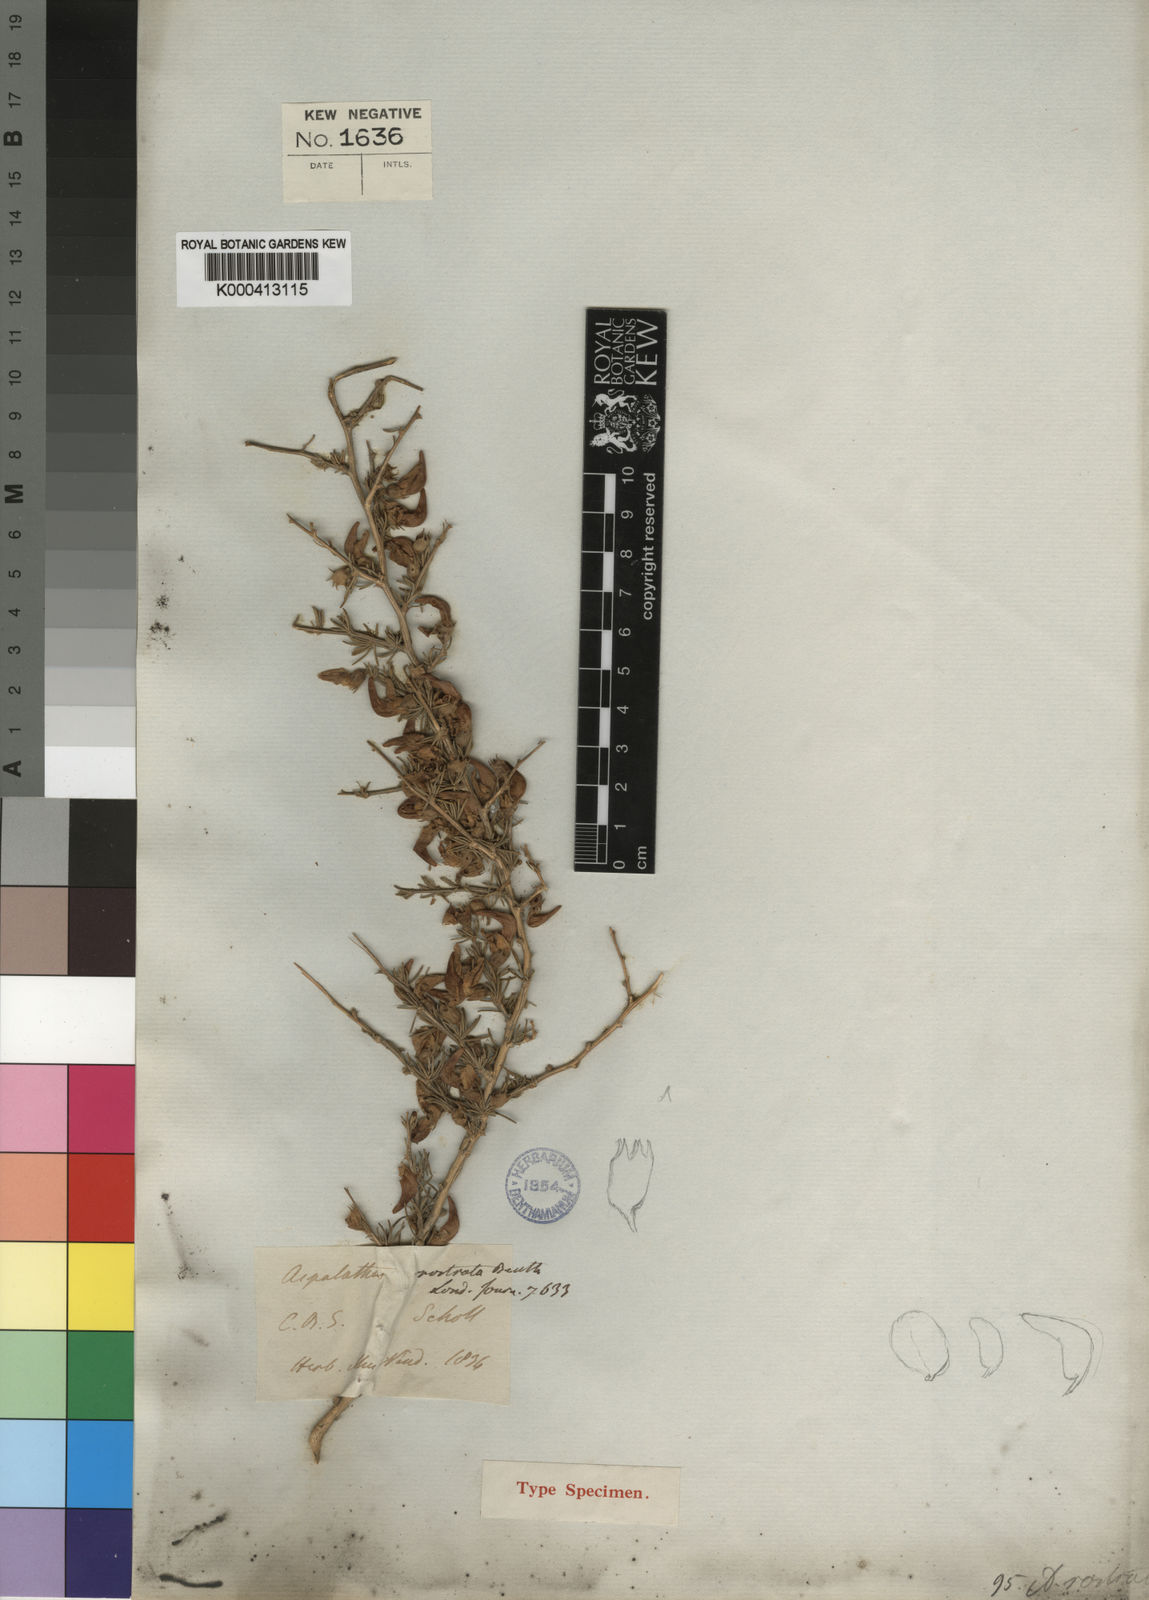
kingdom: Plantae
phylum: Tracheophyta
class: Magnoliopsida
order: Fabales
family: Fabaceae
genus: Aspalathus
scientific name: Aspalathus rostrata
